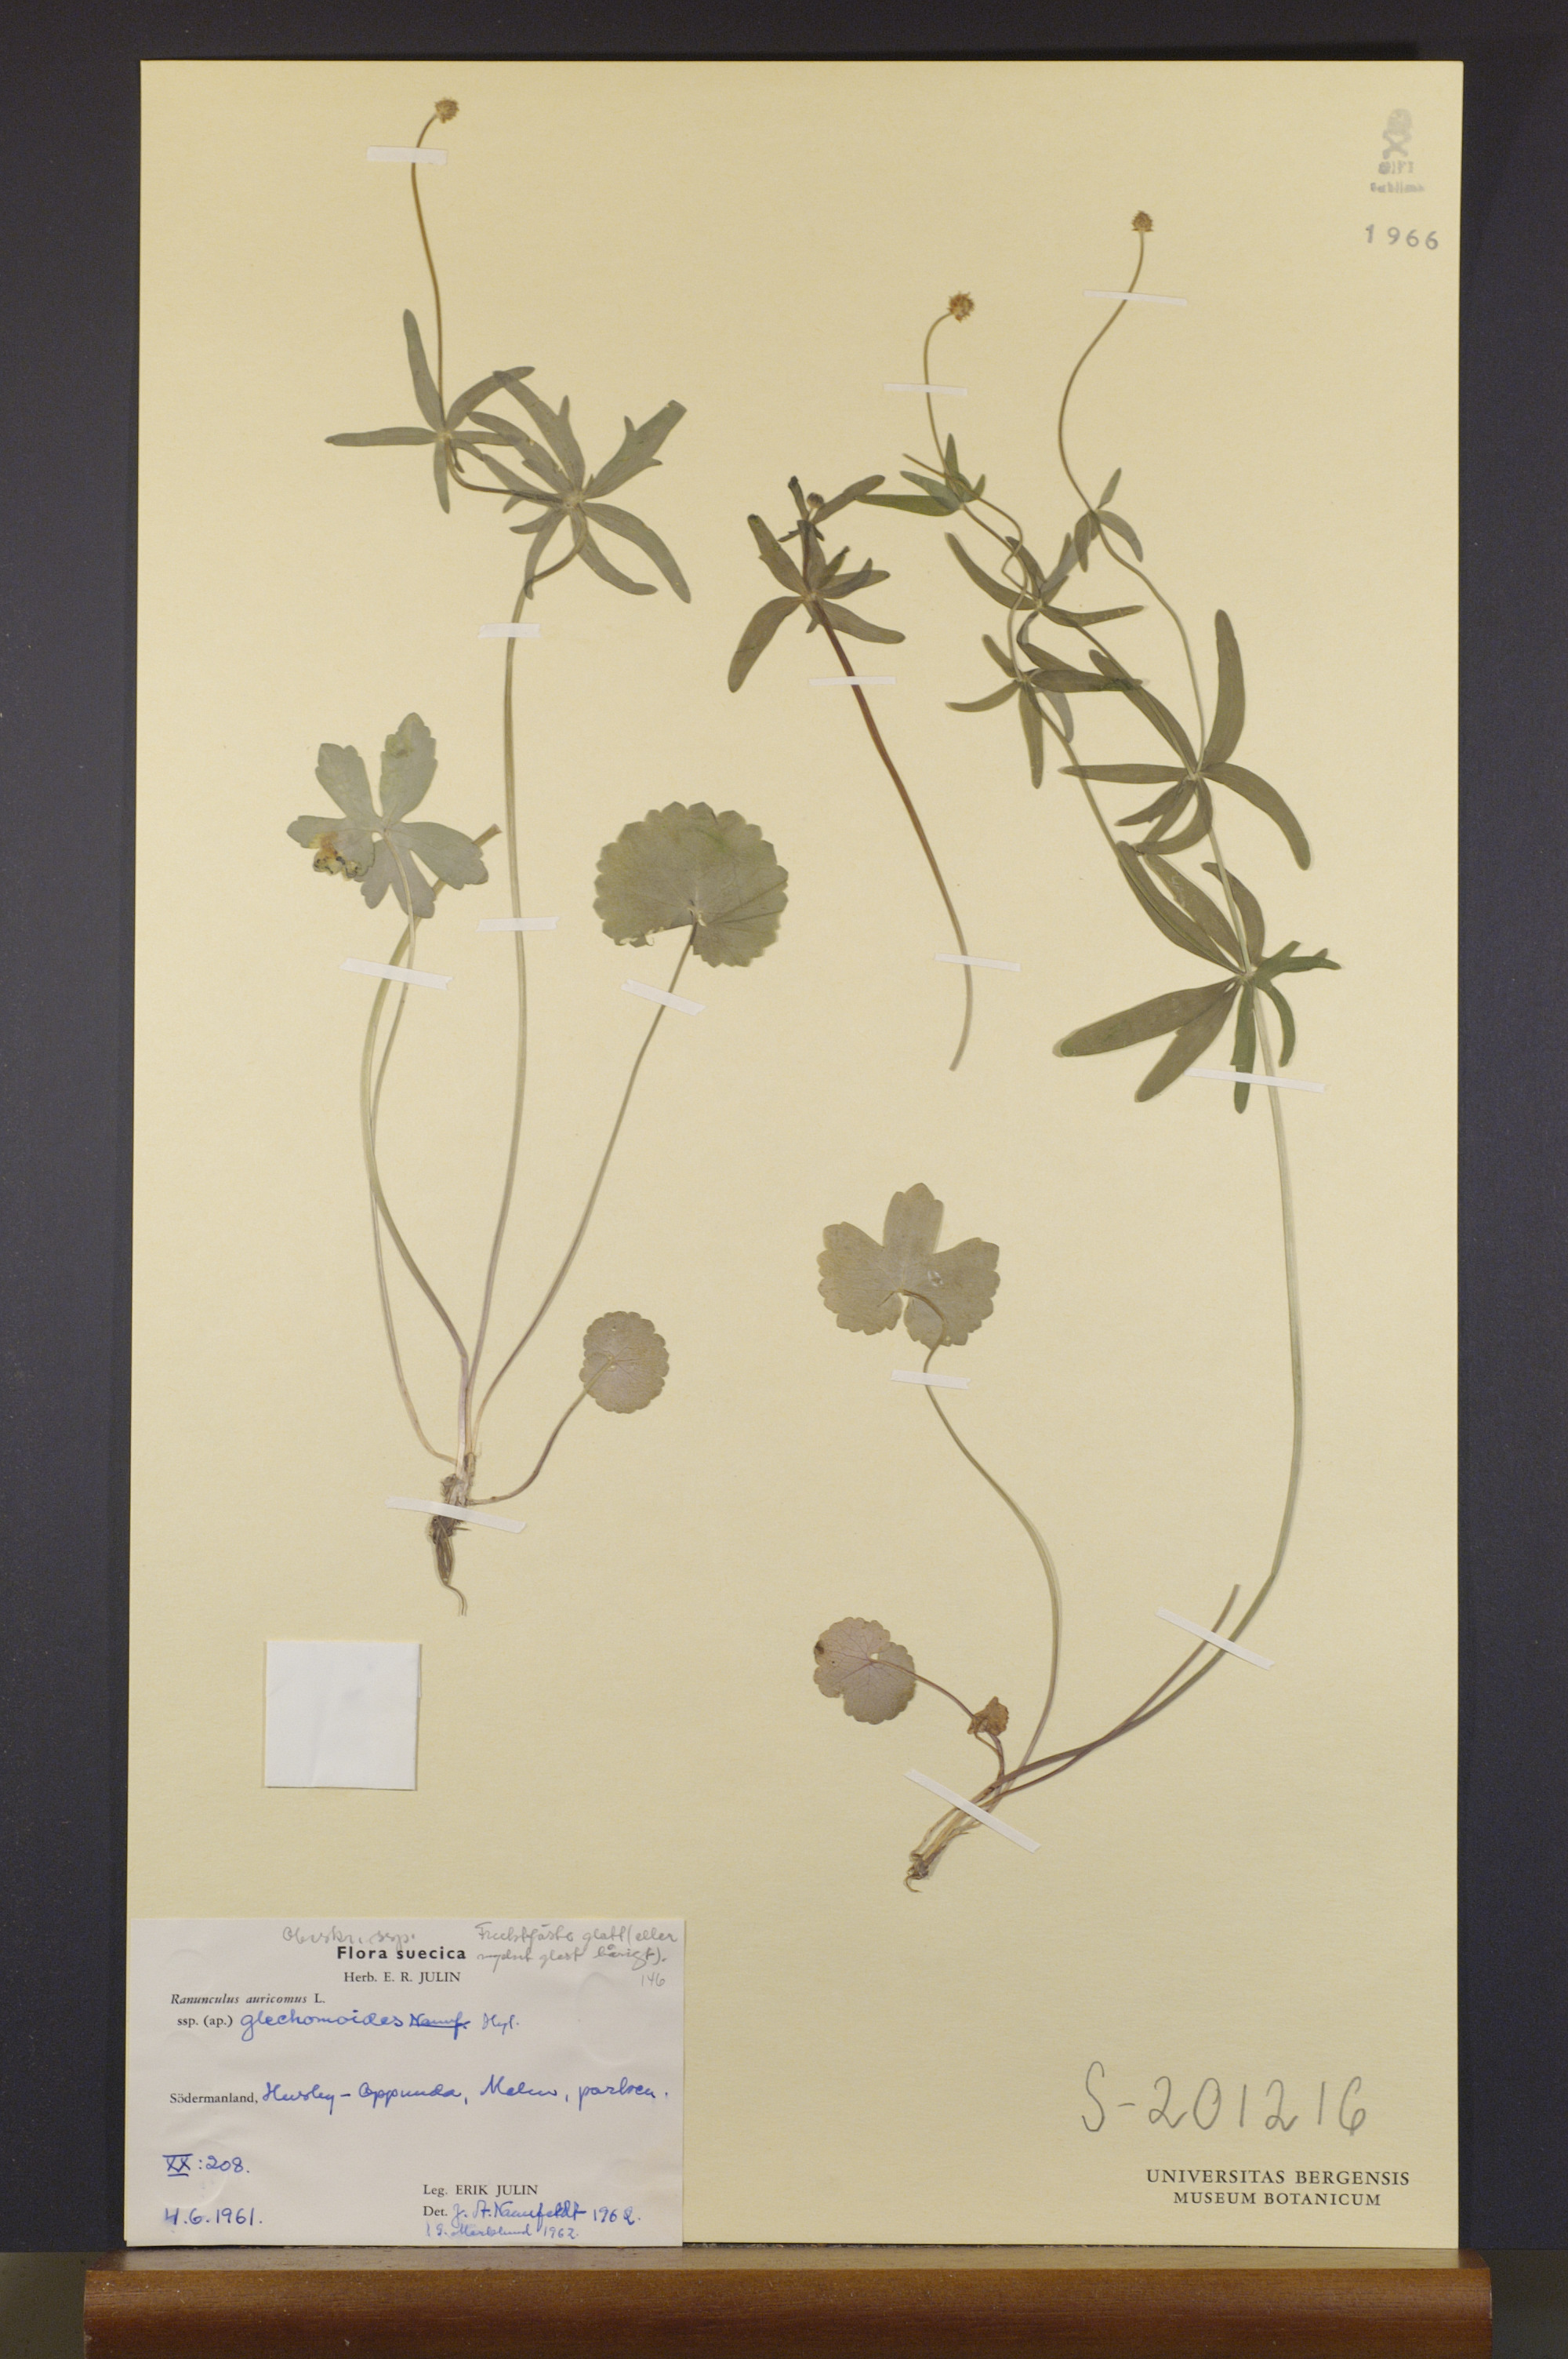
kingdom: Plantae
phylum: Tracheophyta
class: Magnoliopsida
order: Ranunculales
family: Ranunculaceae
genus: Ranunculus
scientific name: Ranunculus glechomoides
